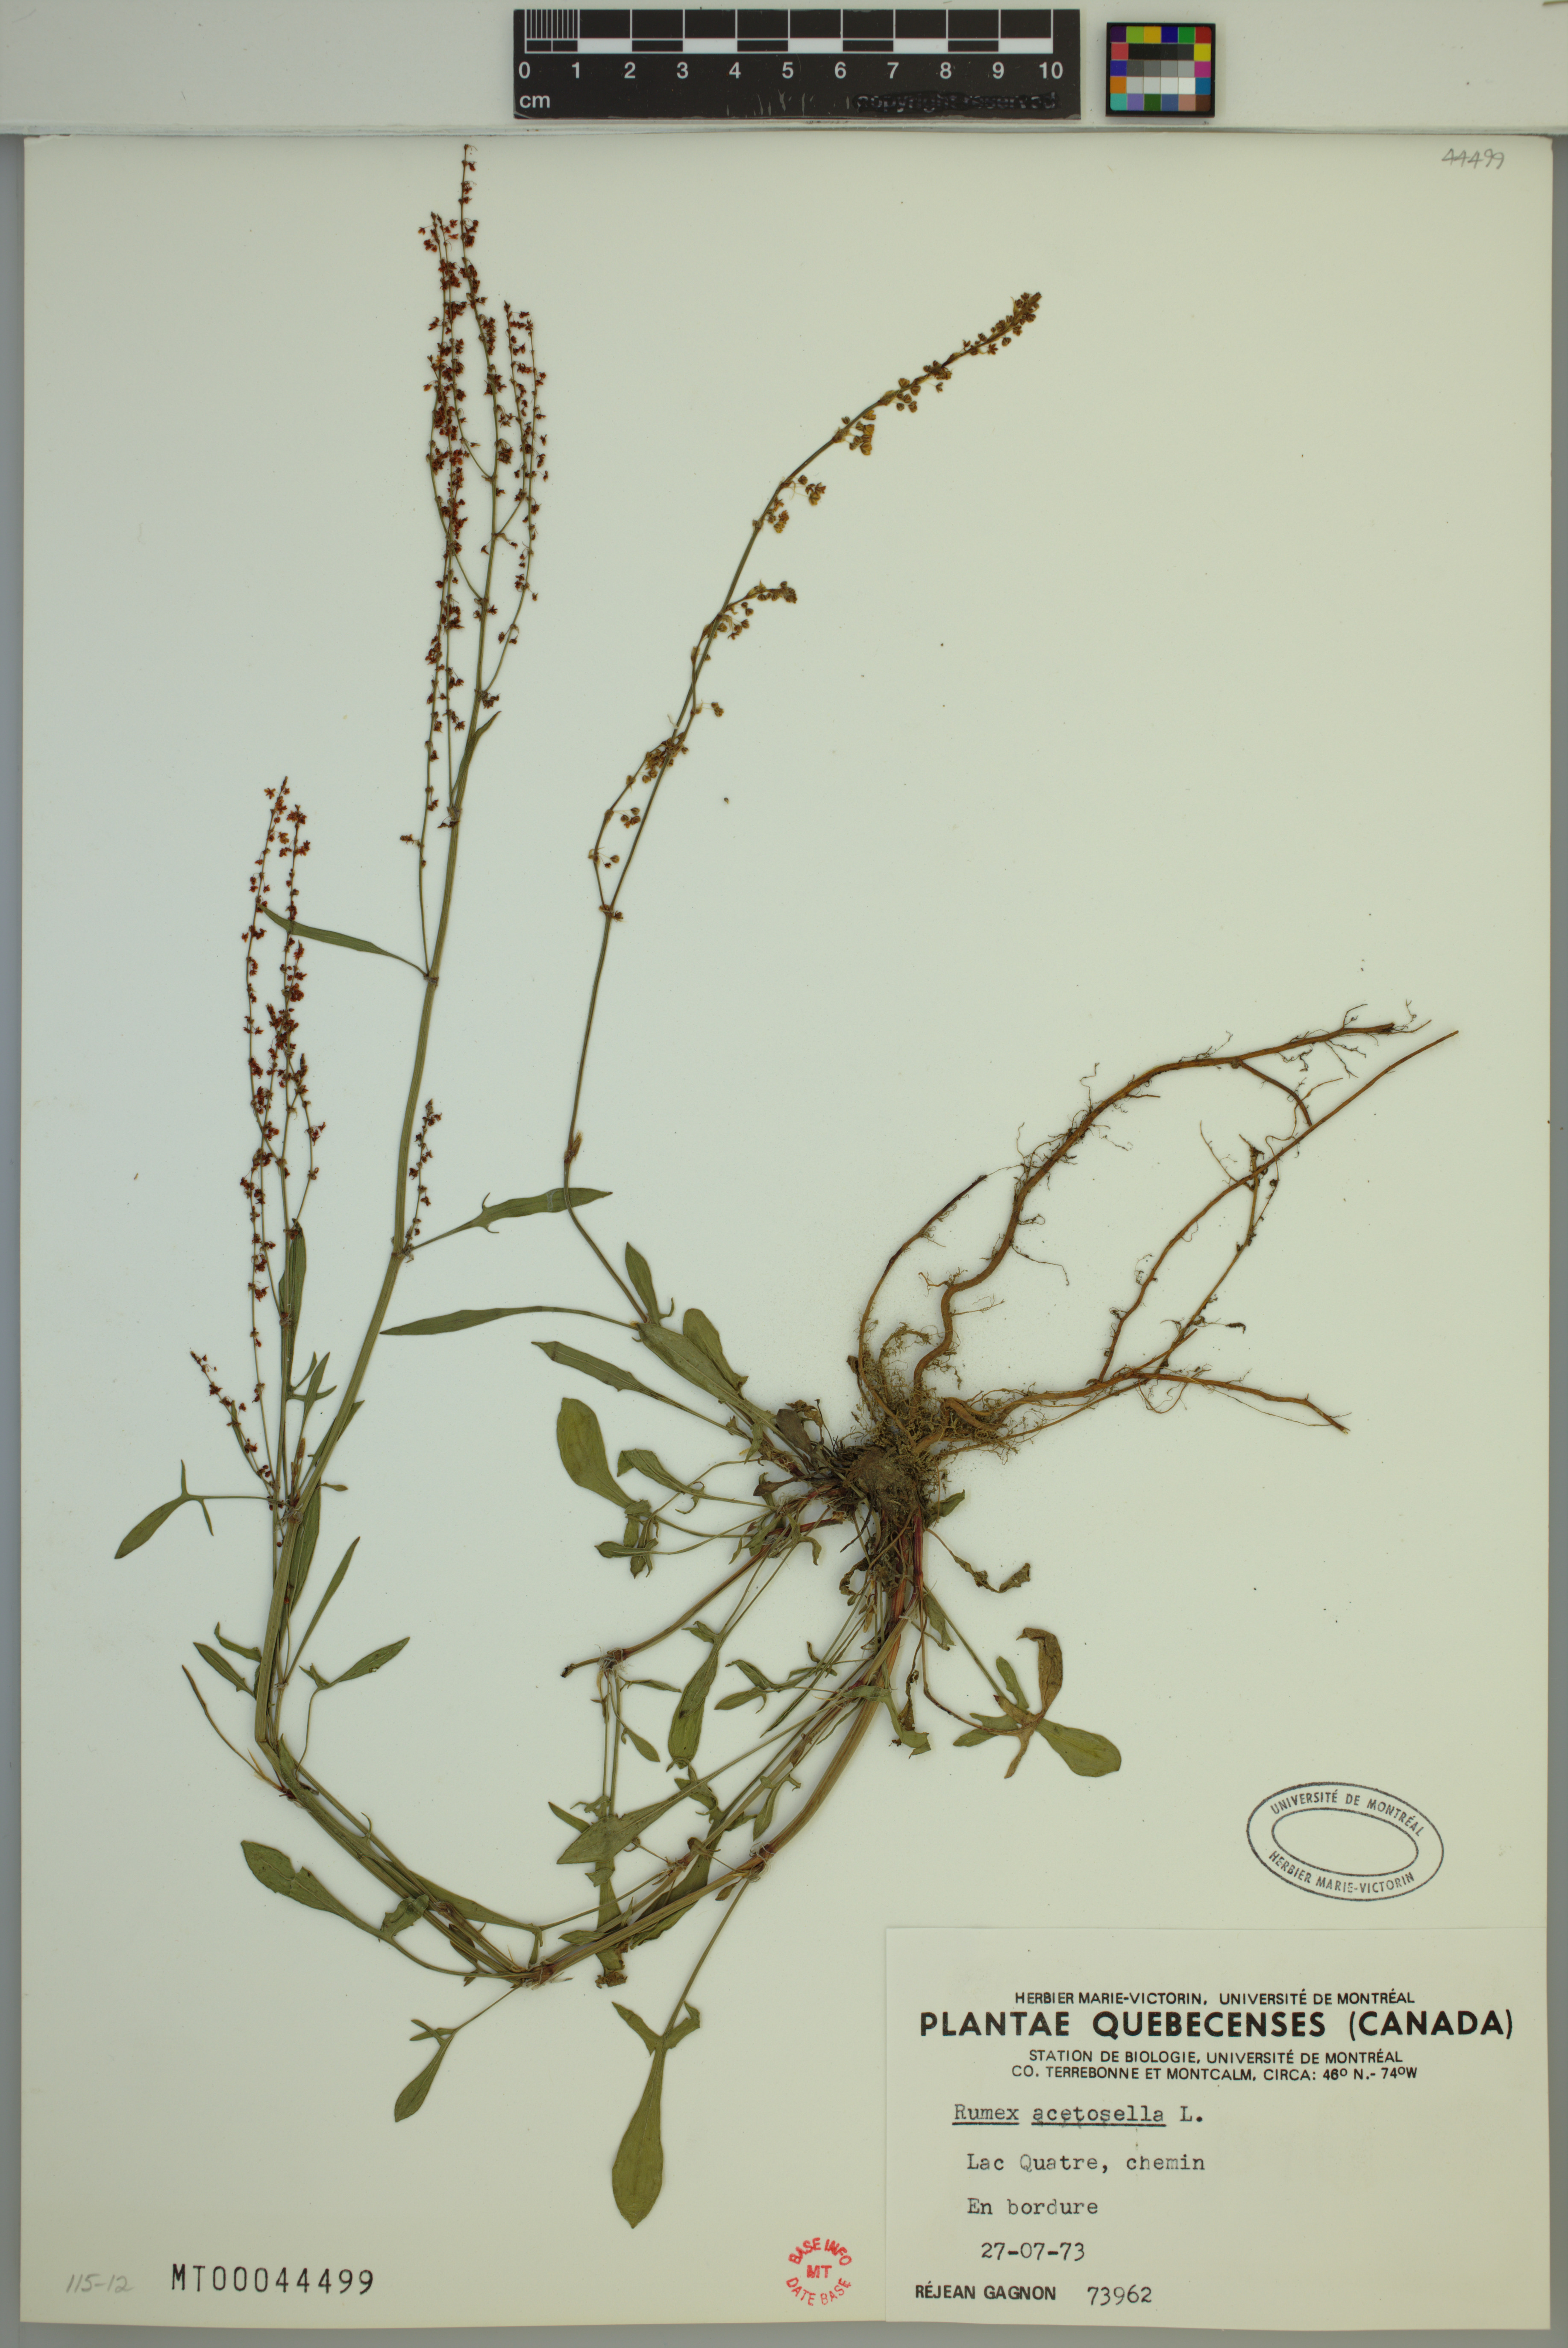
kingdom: Plantae
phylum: Tracheophyta
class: Magnoliopsida
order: Caryophyllales
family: Polygonaceae
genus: Rumex
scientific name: Rumex acetosella
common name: Common sheep sorrel
